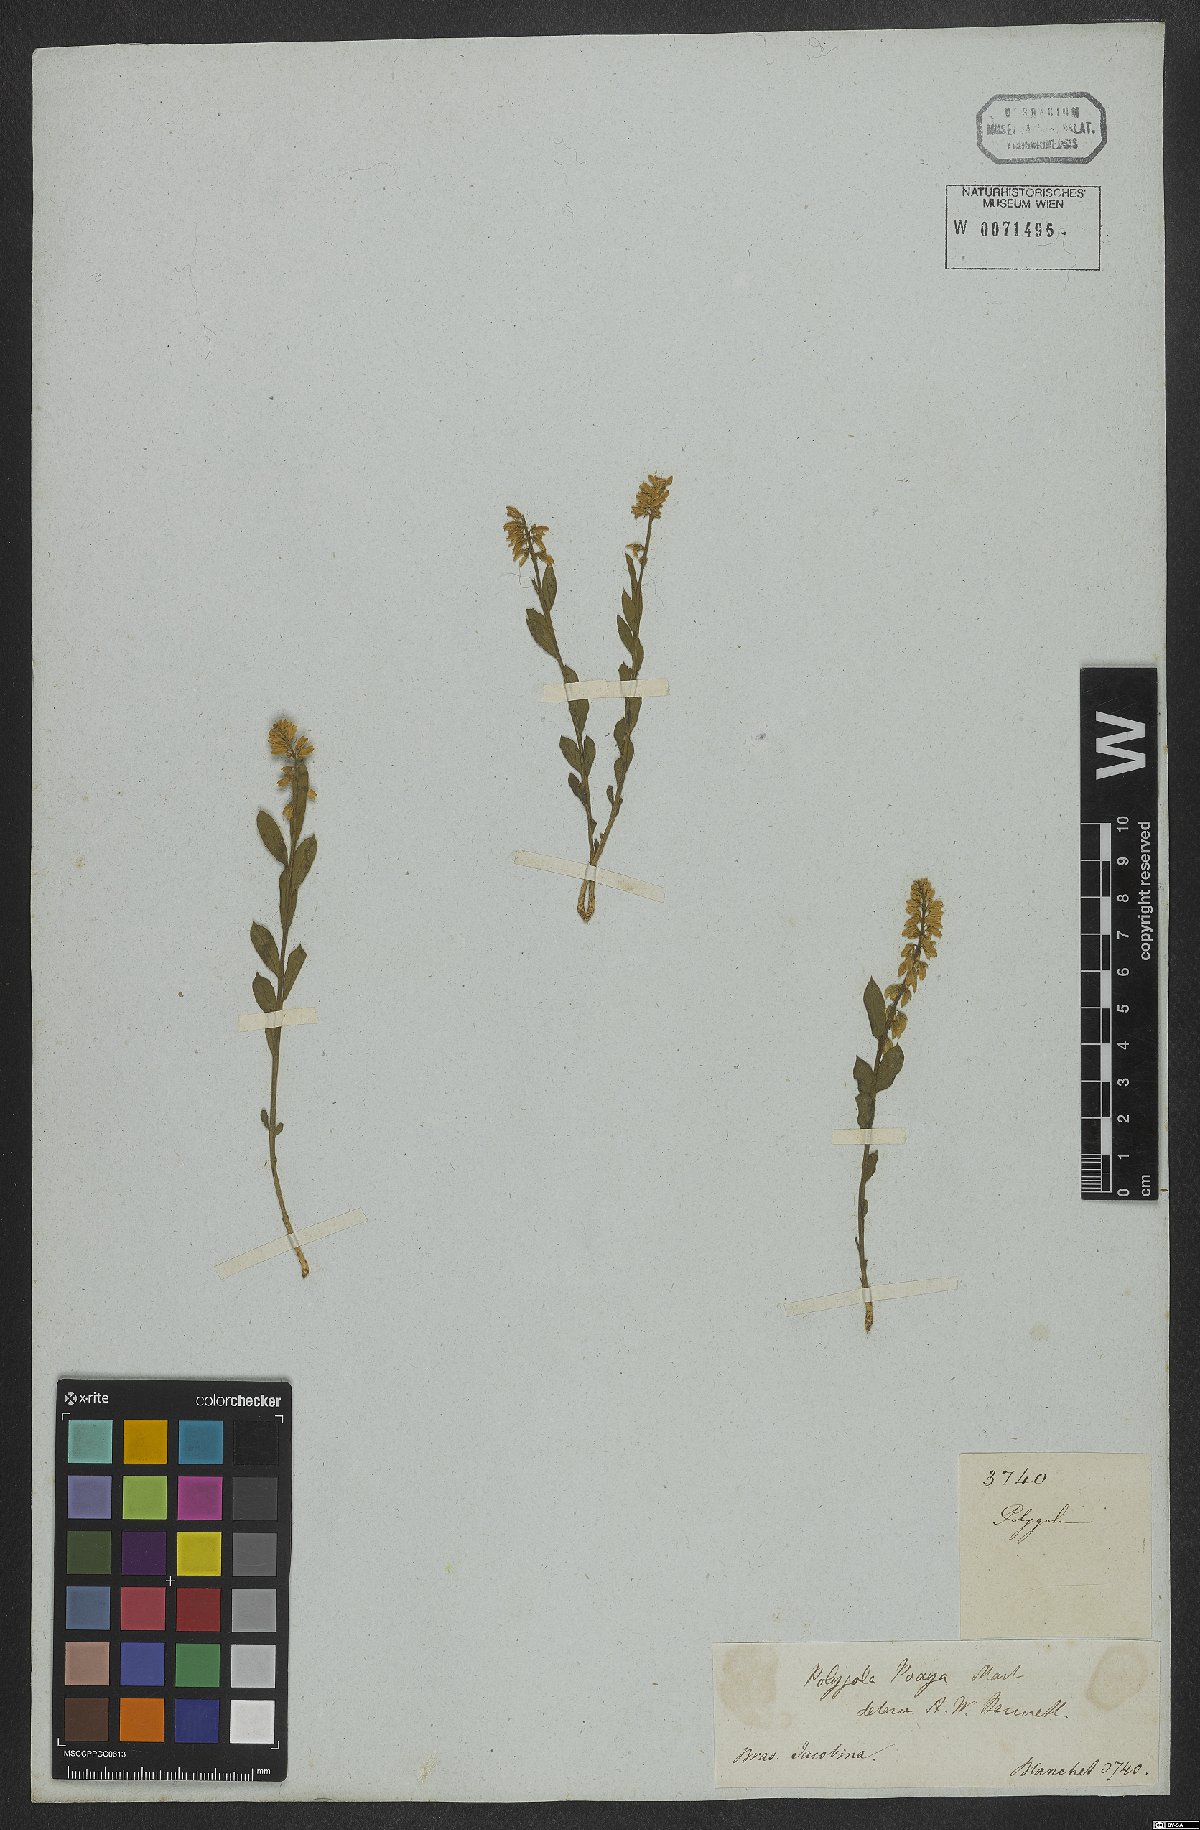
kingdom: Plantae
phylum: Tracheophyta
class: Magnoliopsida
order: Fabales
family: Polygalaceae
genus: Polygala
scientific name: Polygala poaya
